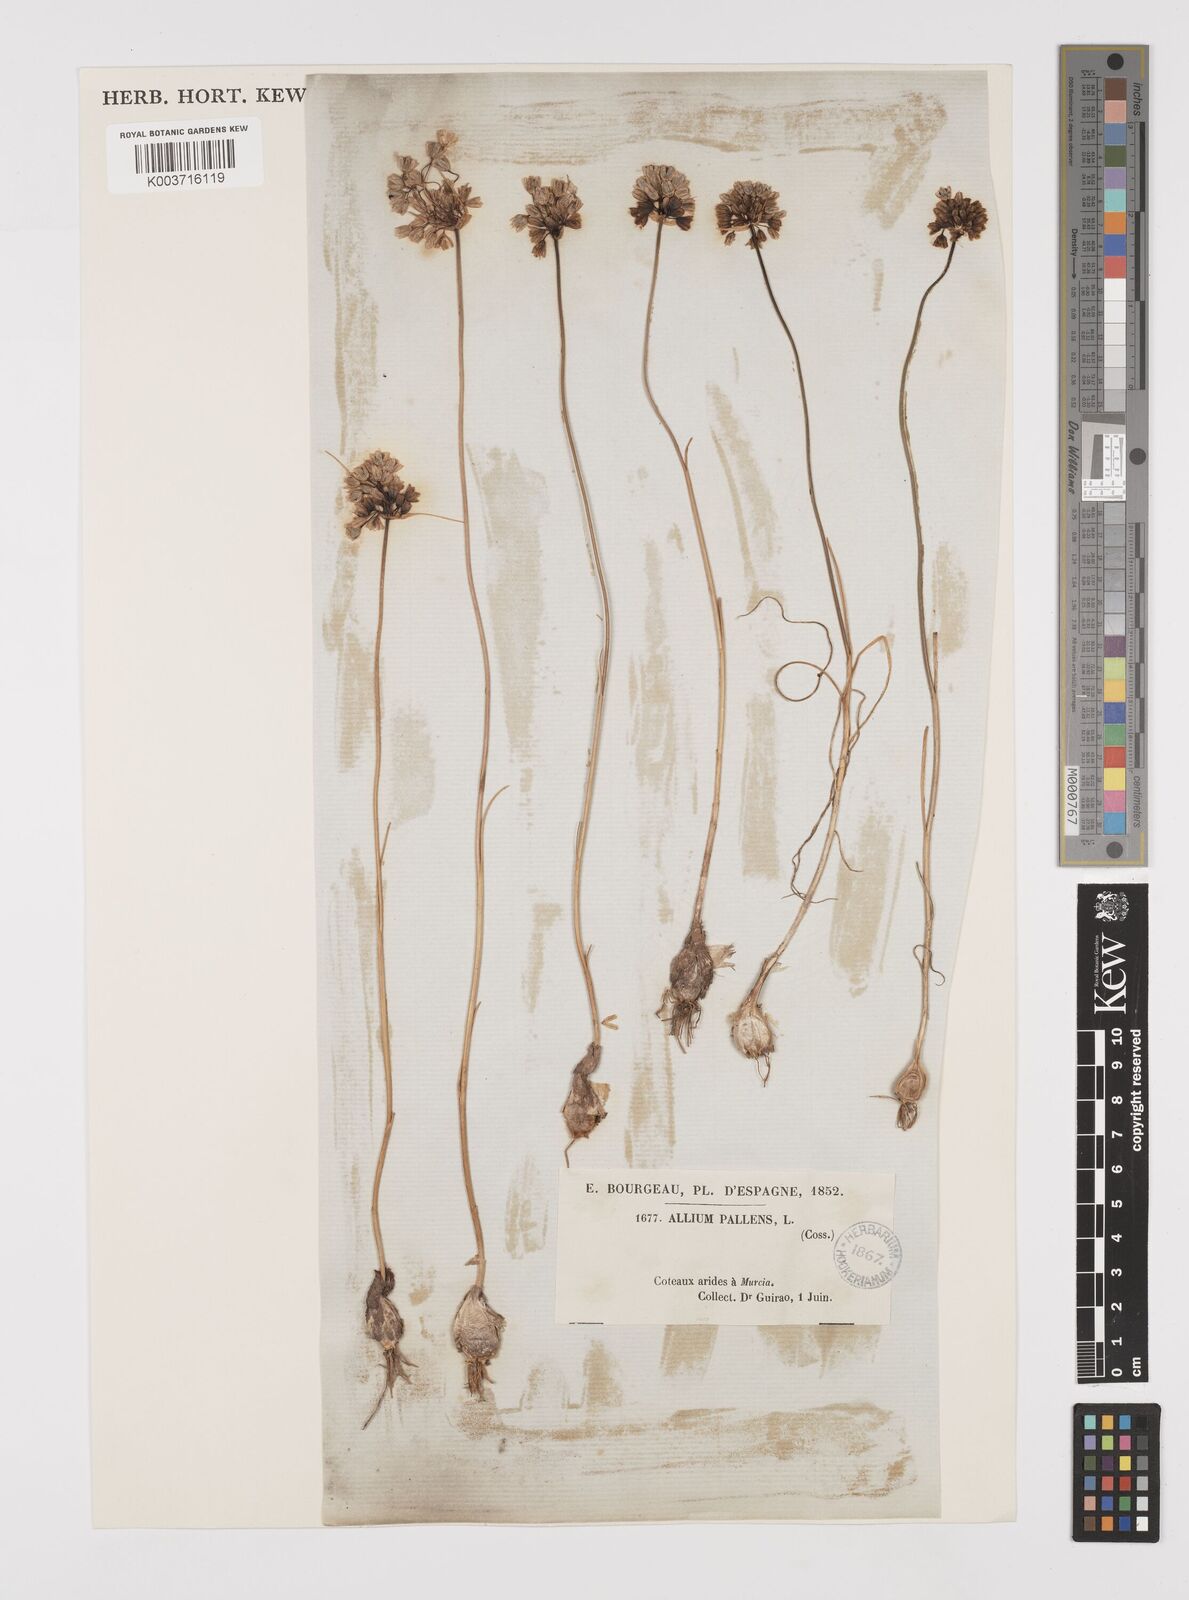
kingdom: Plantae
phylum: Tracheophyta
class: Liliopsida
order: Asparagales
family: Amaryllidaceae
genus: Allium
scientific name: Allium pallens
